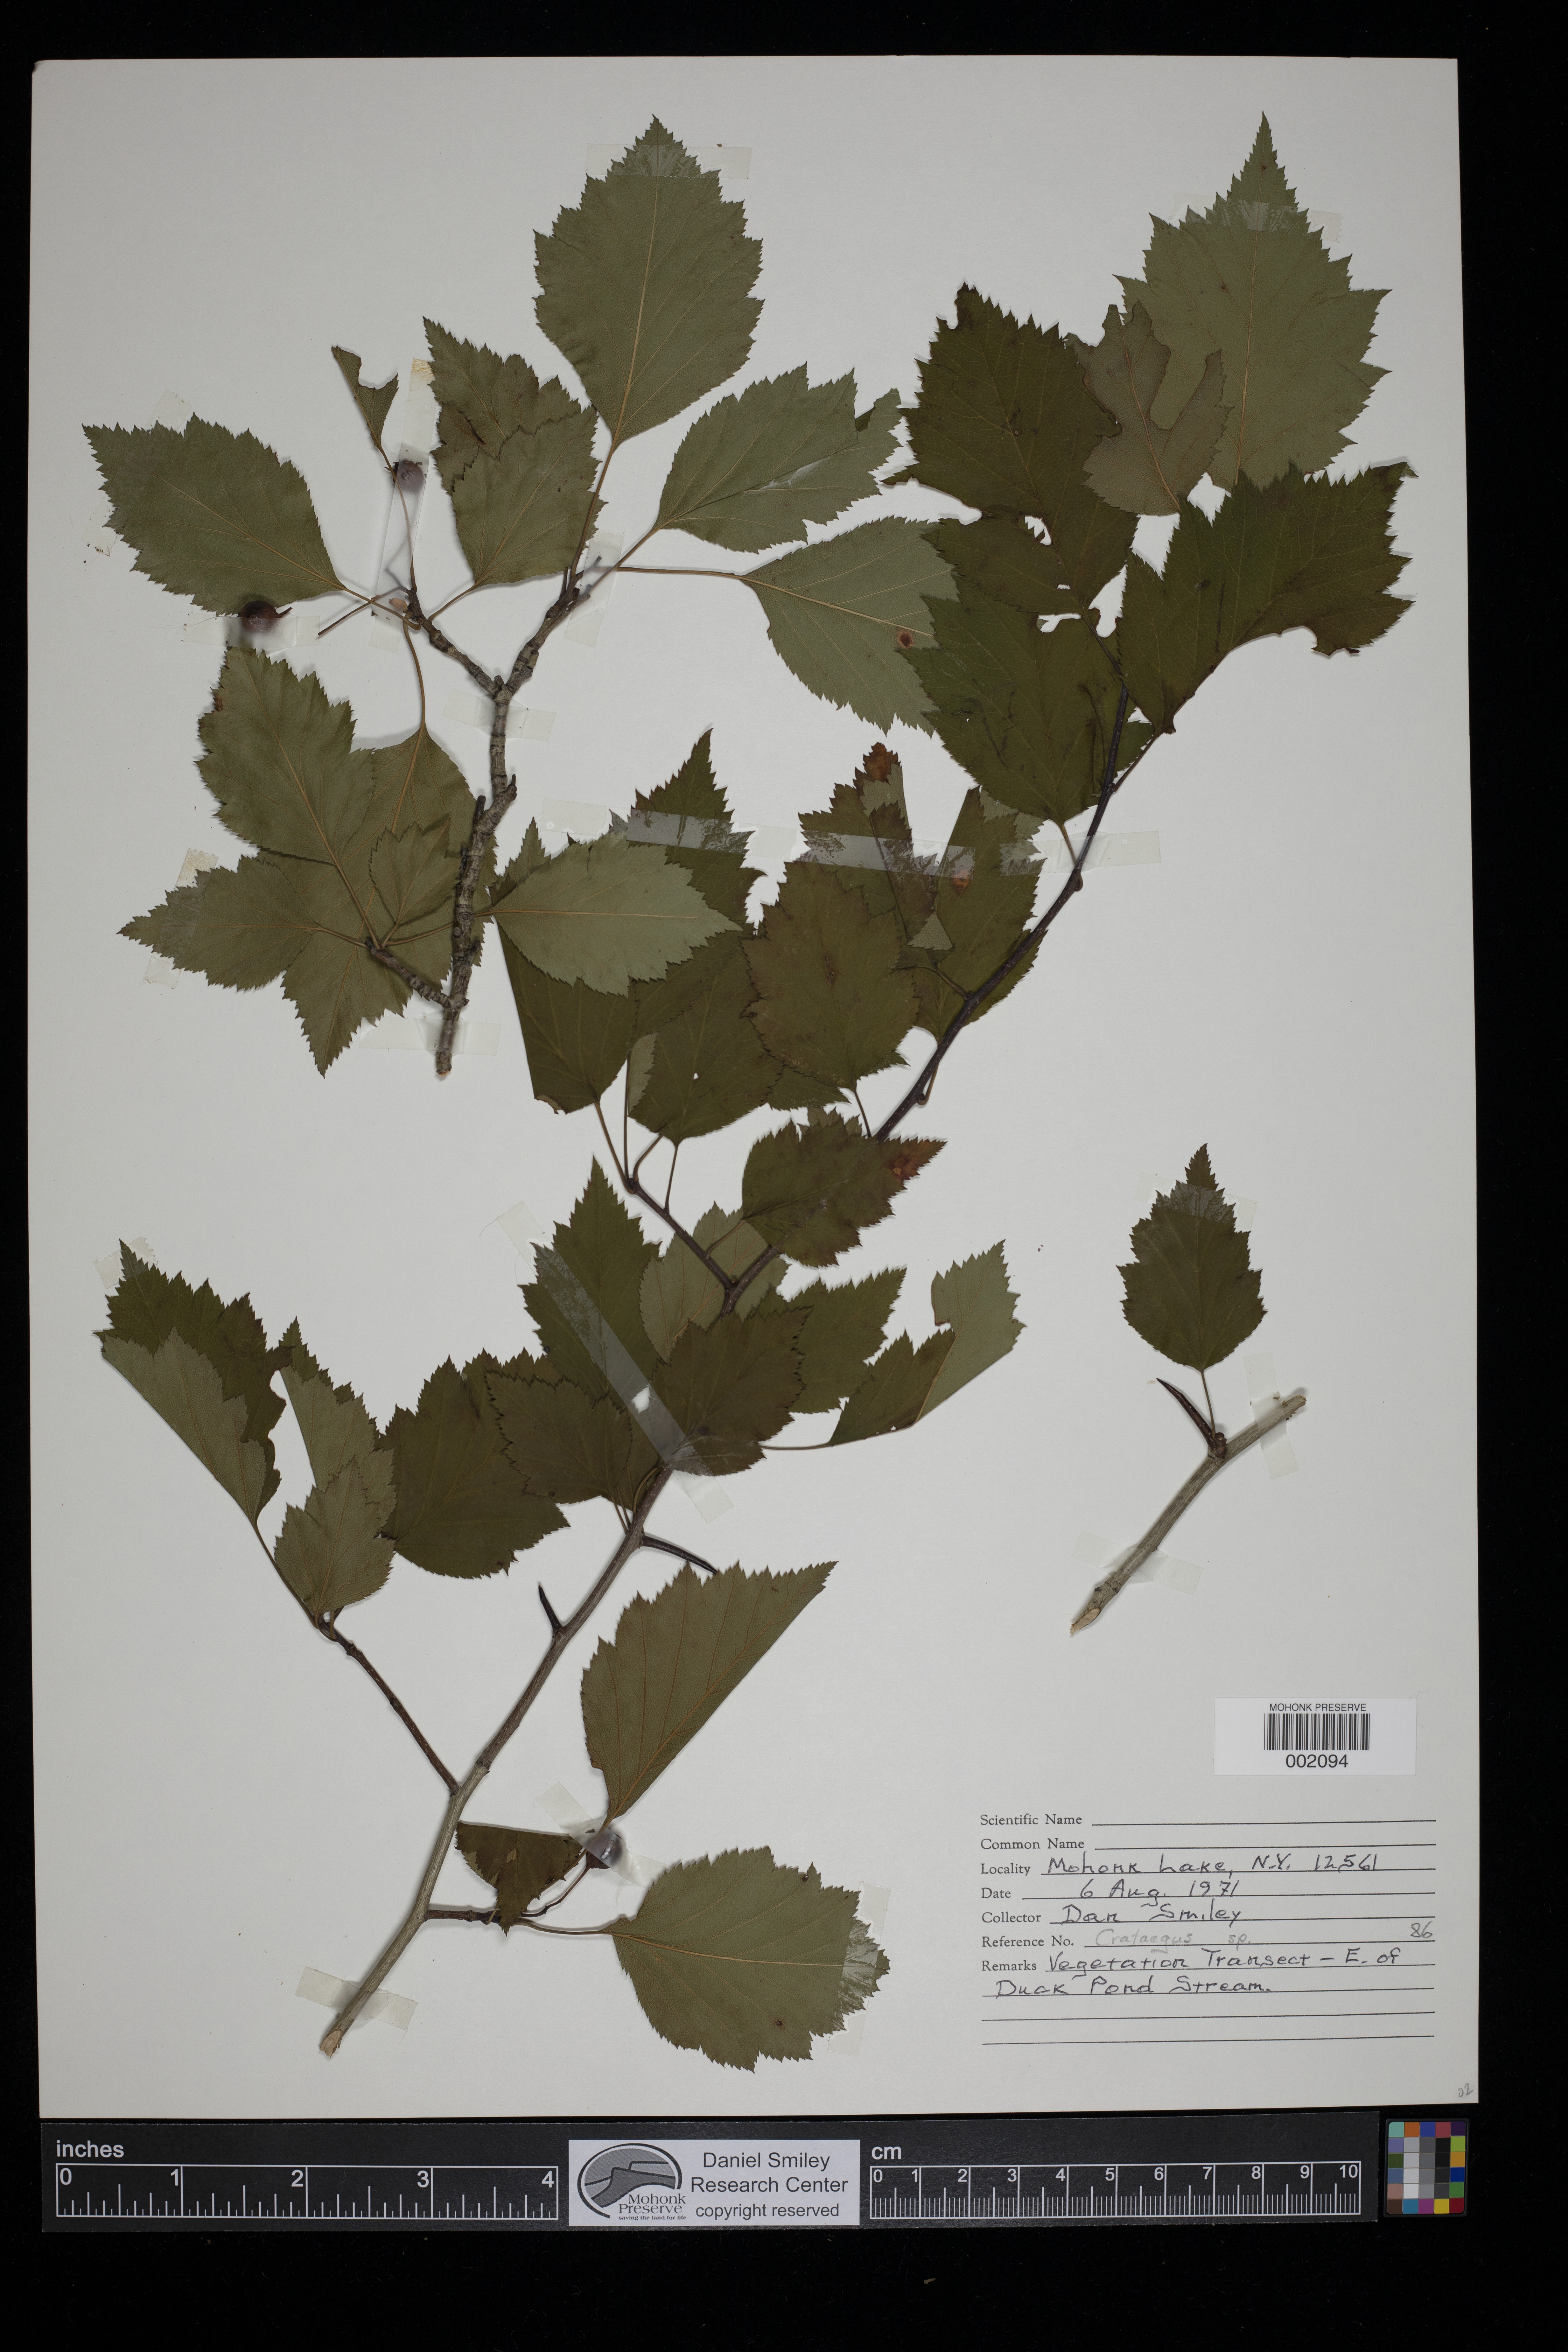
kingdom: Plantae
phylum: Tracheophyta
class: Magnoliopsida
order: Rosales
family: Rosaceae
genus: Crataegus
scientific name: Crataegus
